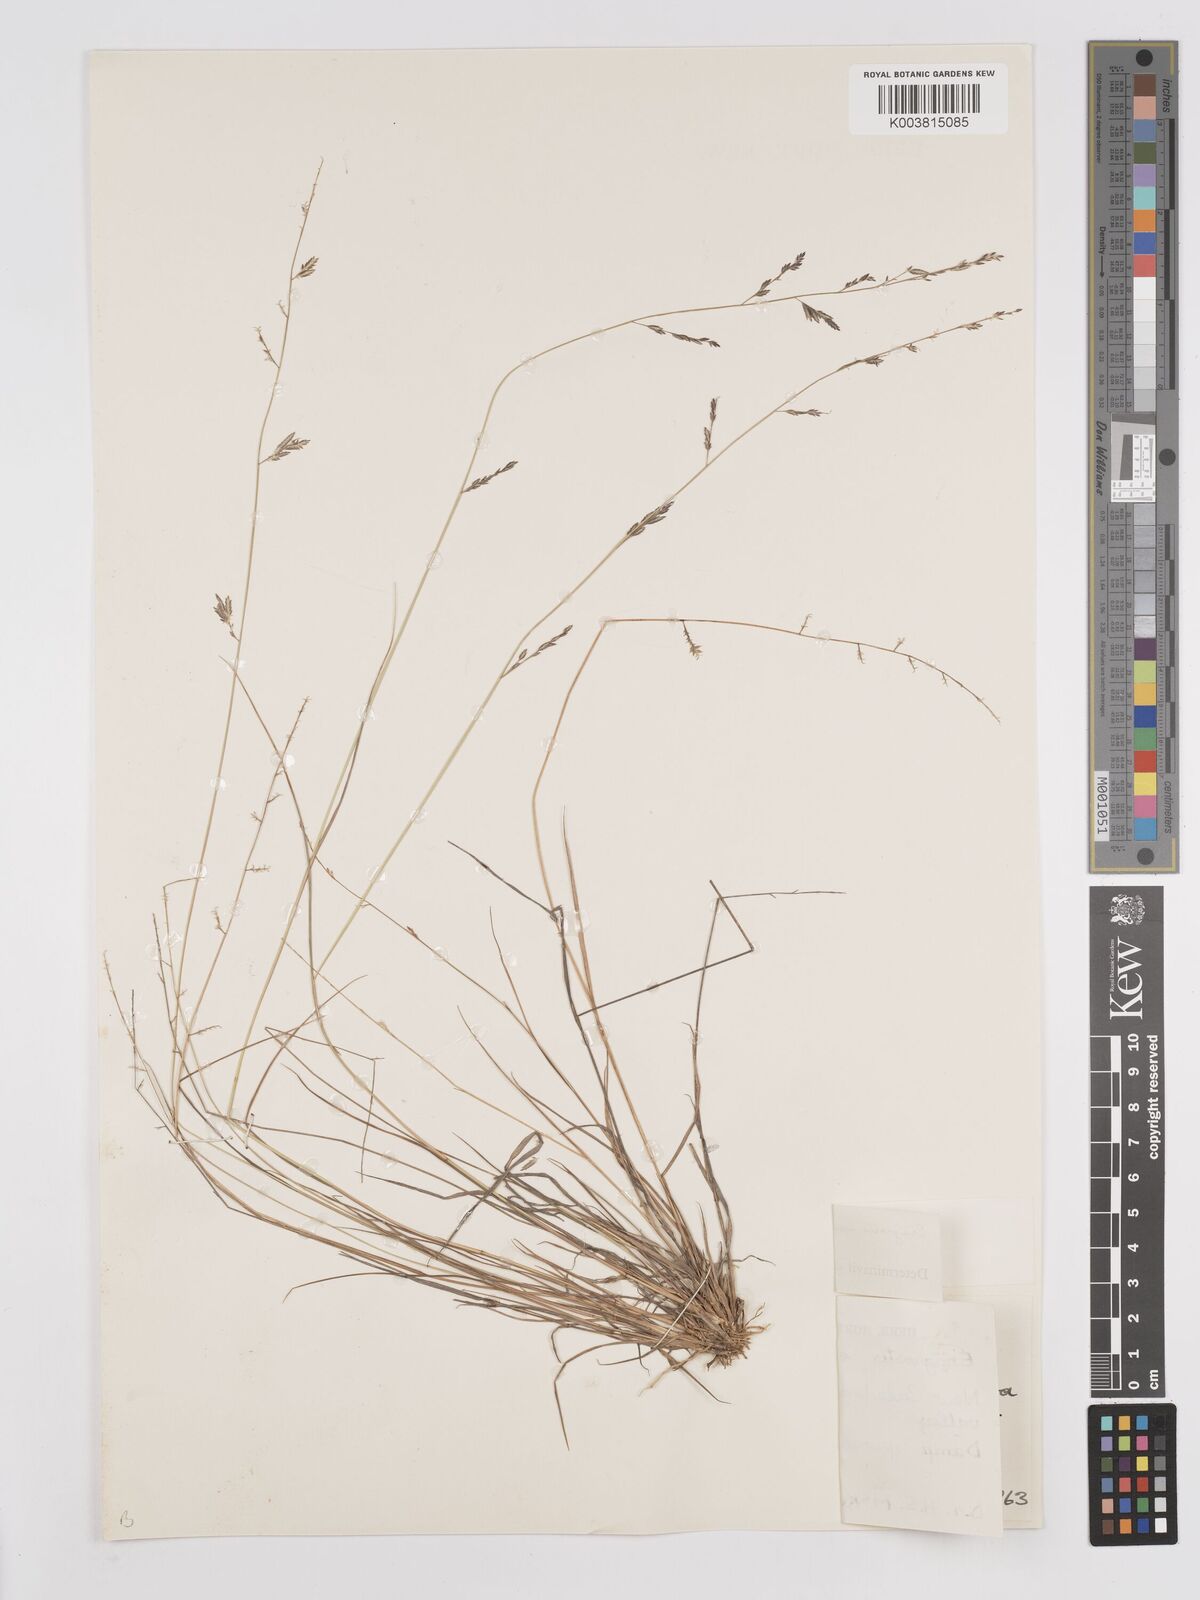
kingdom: Plantae
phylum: Tracheophyta
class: Liliopsida
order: Poales
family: Poaceae
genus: Eragrostis
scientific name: Eragrostis brownii
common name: Lovegrass
